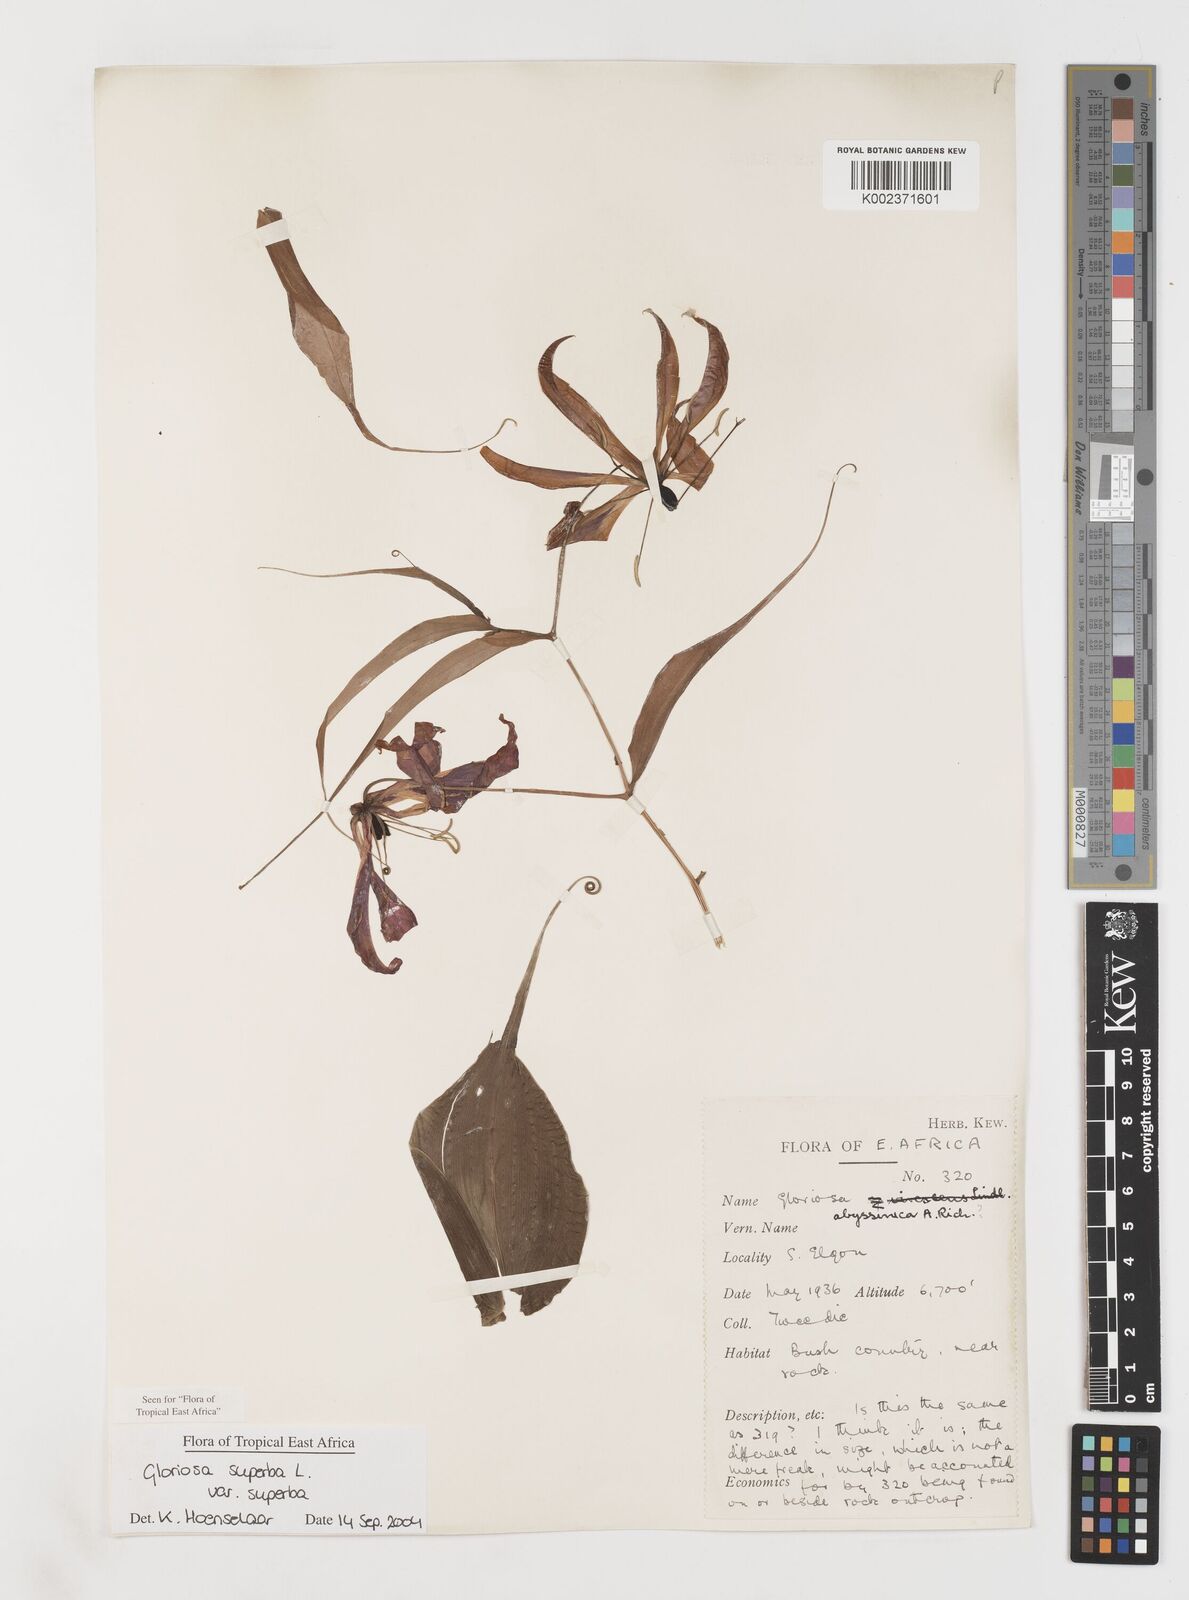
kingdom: Plantae
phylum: Tracheophyta
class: Liliopsida
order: Liliales
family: Colchicaceae
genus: Gloriosa
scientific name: Gloriosa simplex
